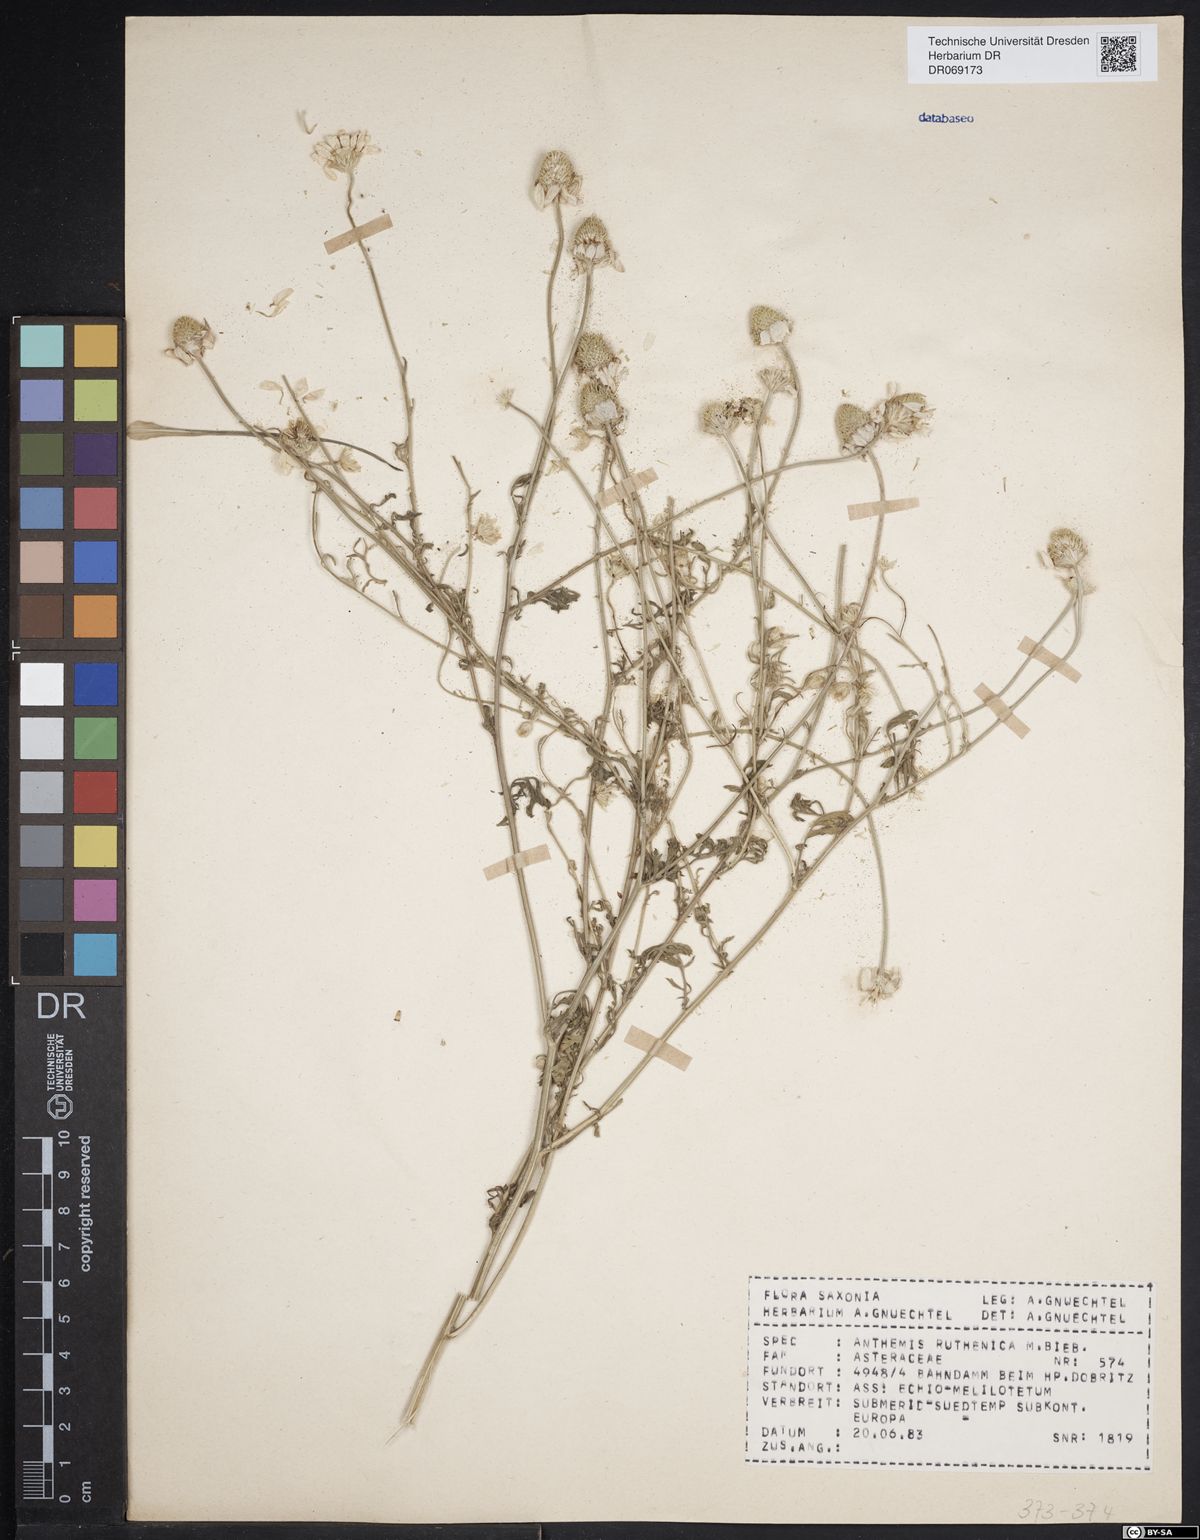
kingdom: Plantae
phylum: Tracheophyta
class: Magnoliopsida
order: Asterales
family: Asteraceae
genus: Anthemis
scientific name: Anthemis ruthenica
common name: Eastern chamomile
